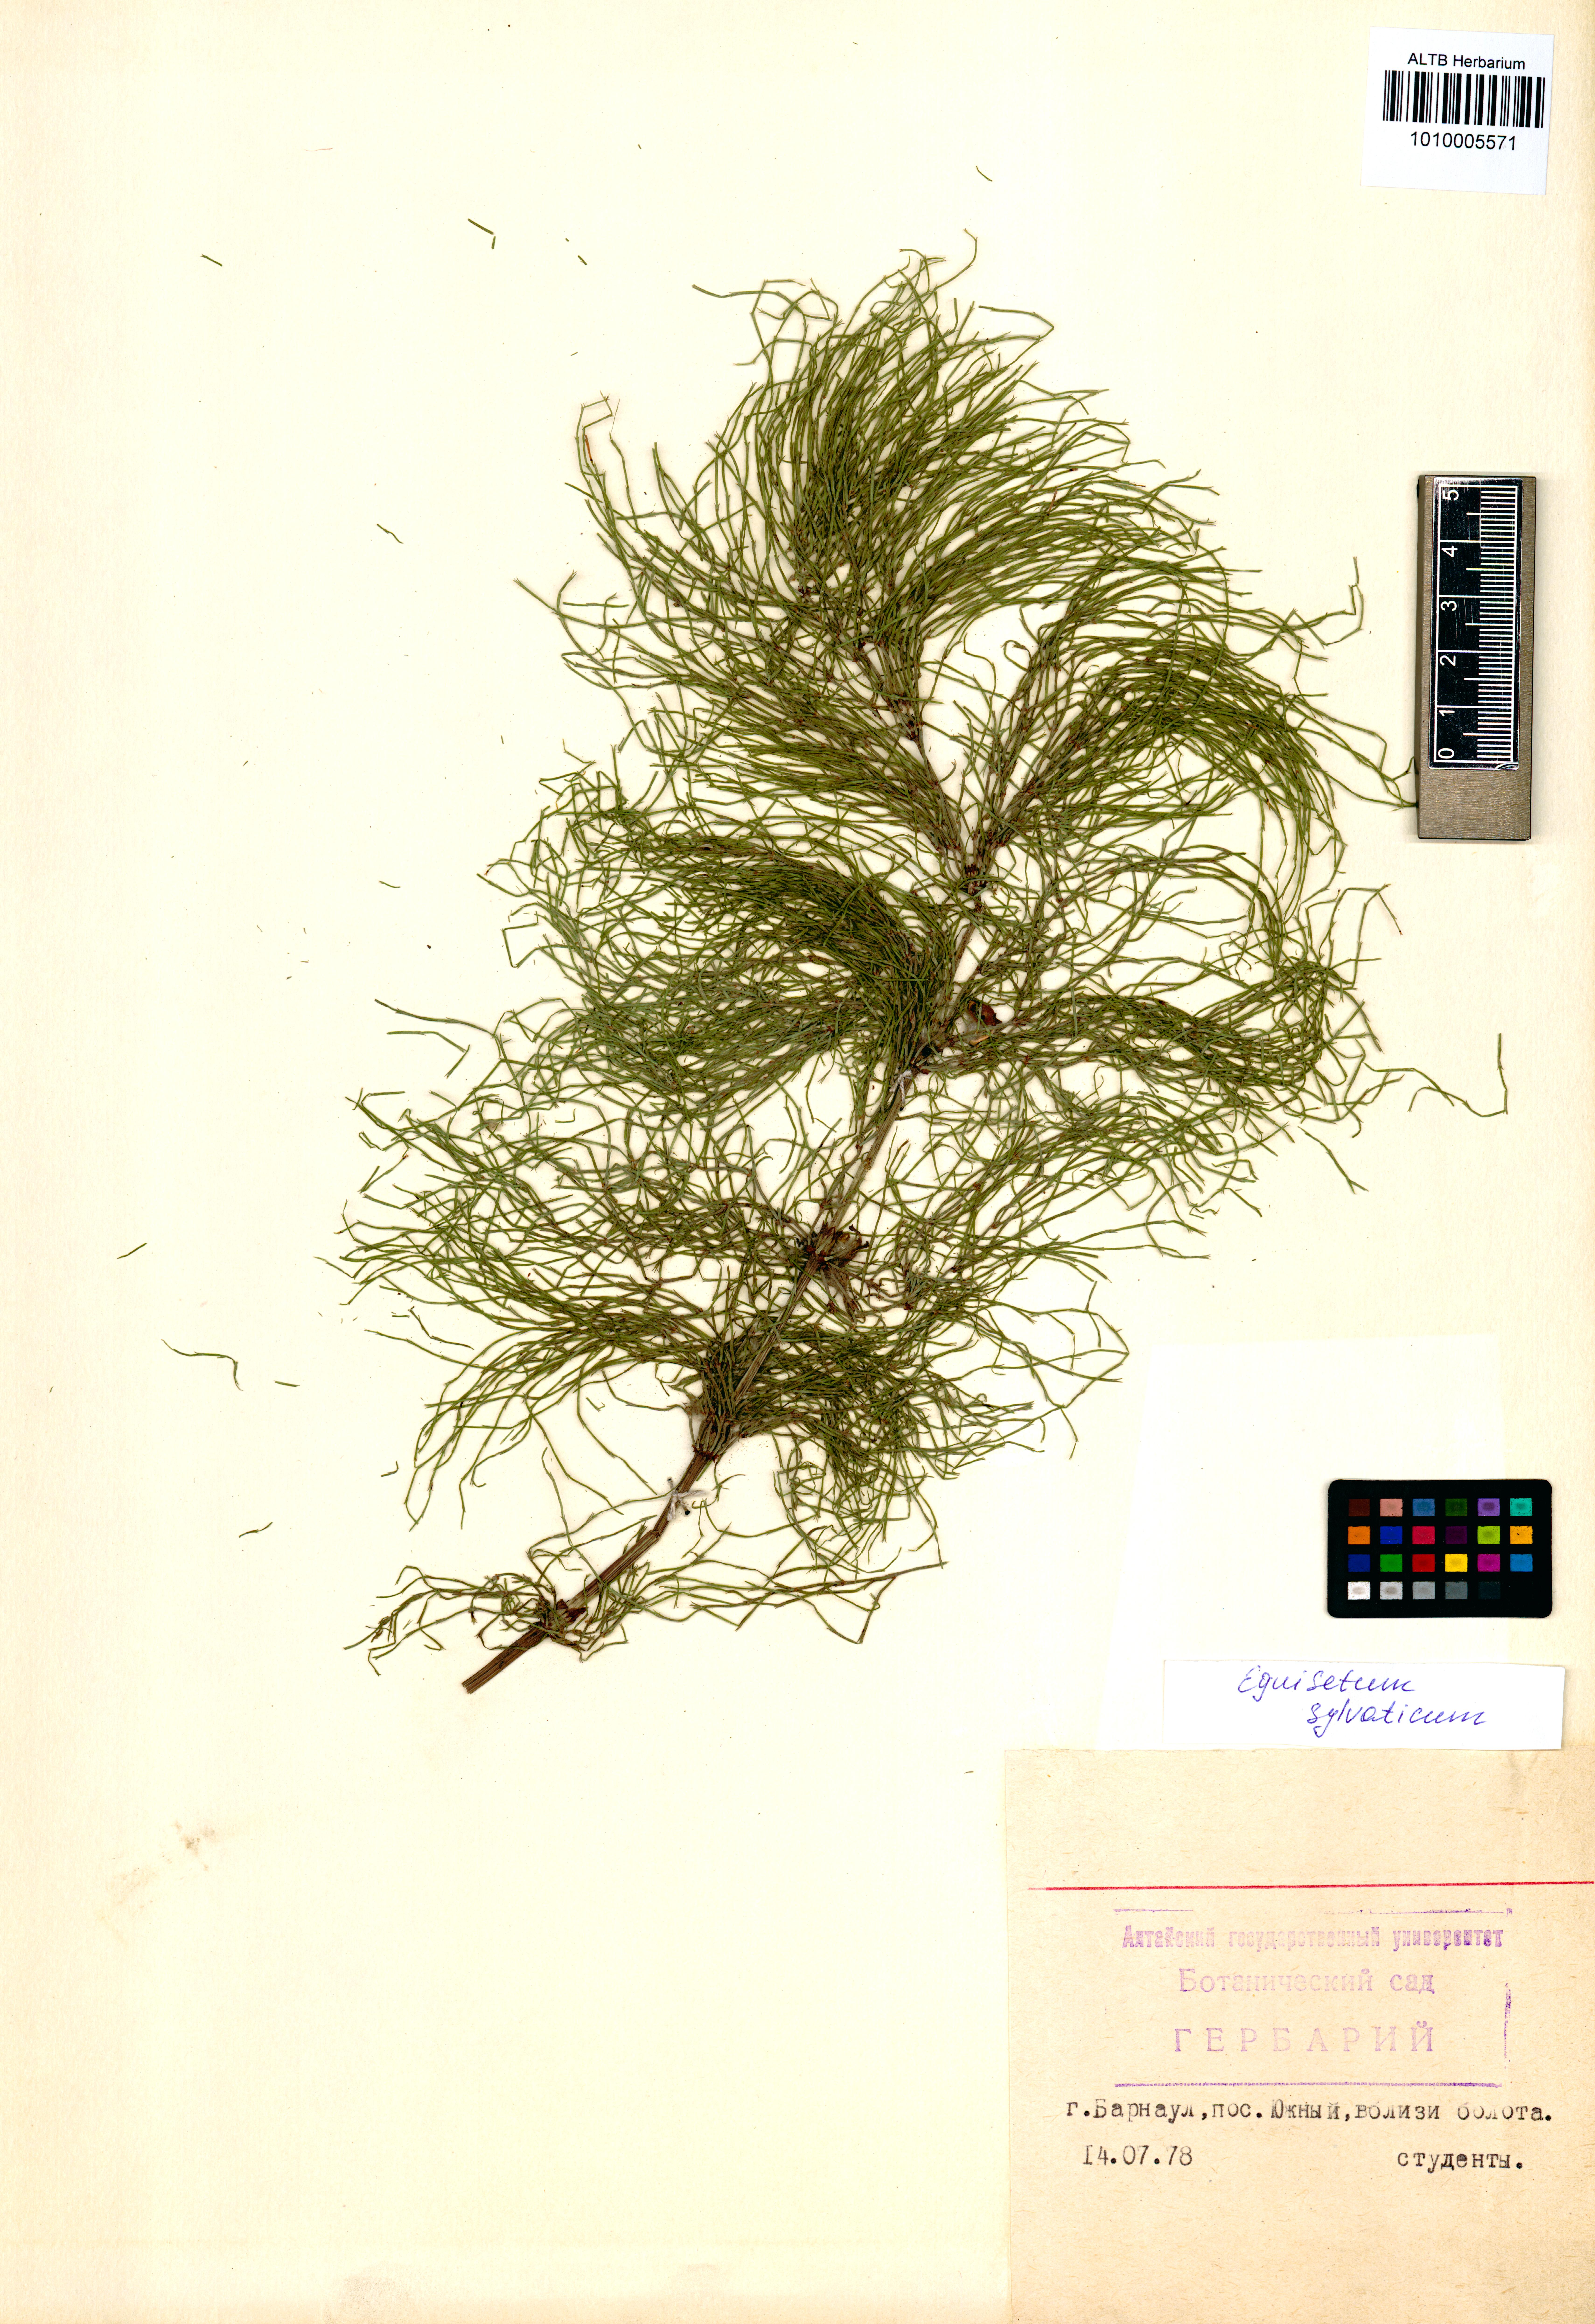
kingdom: Plantae
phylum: Tracheophyta
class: Polypodiopsida
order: Equisetales
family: Equisetaceae
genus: Equisetum
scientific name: Equisetum sylvaticum
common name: Wood horsetail
